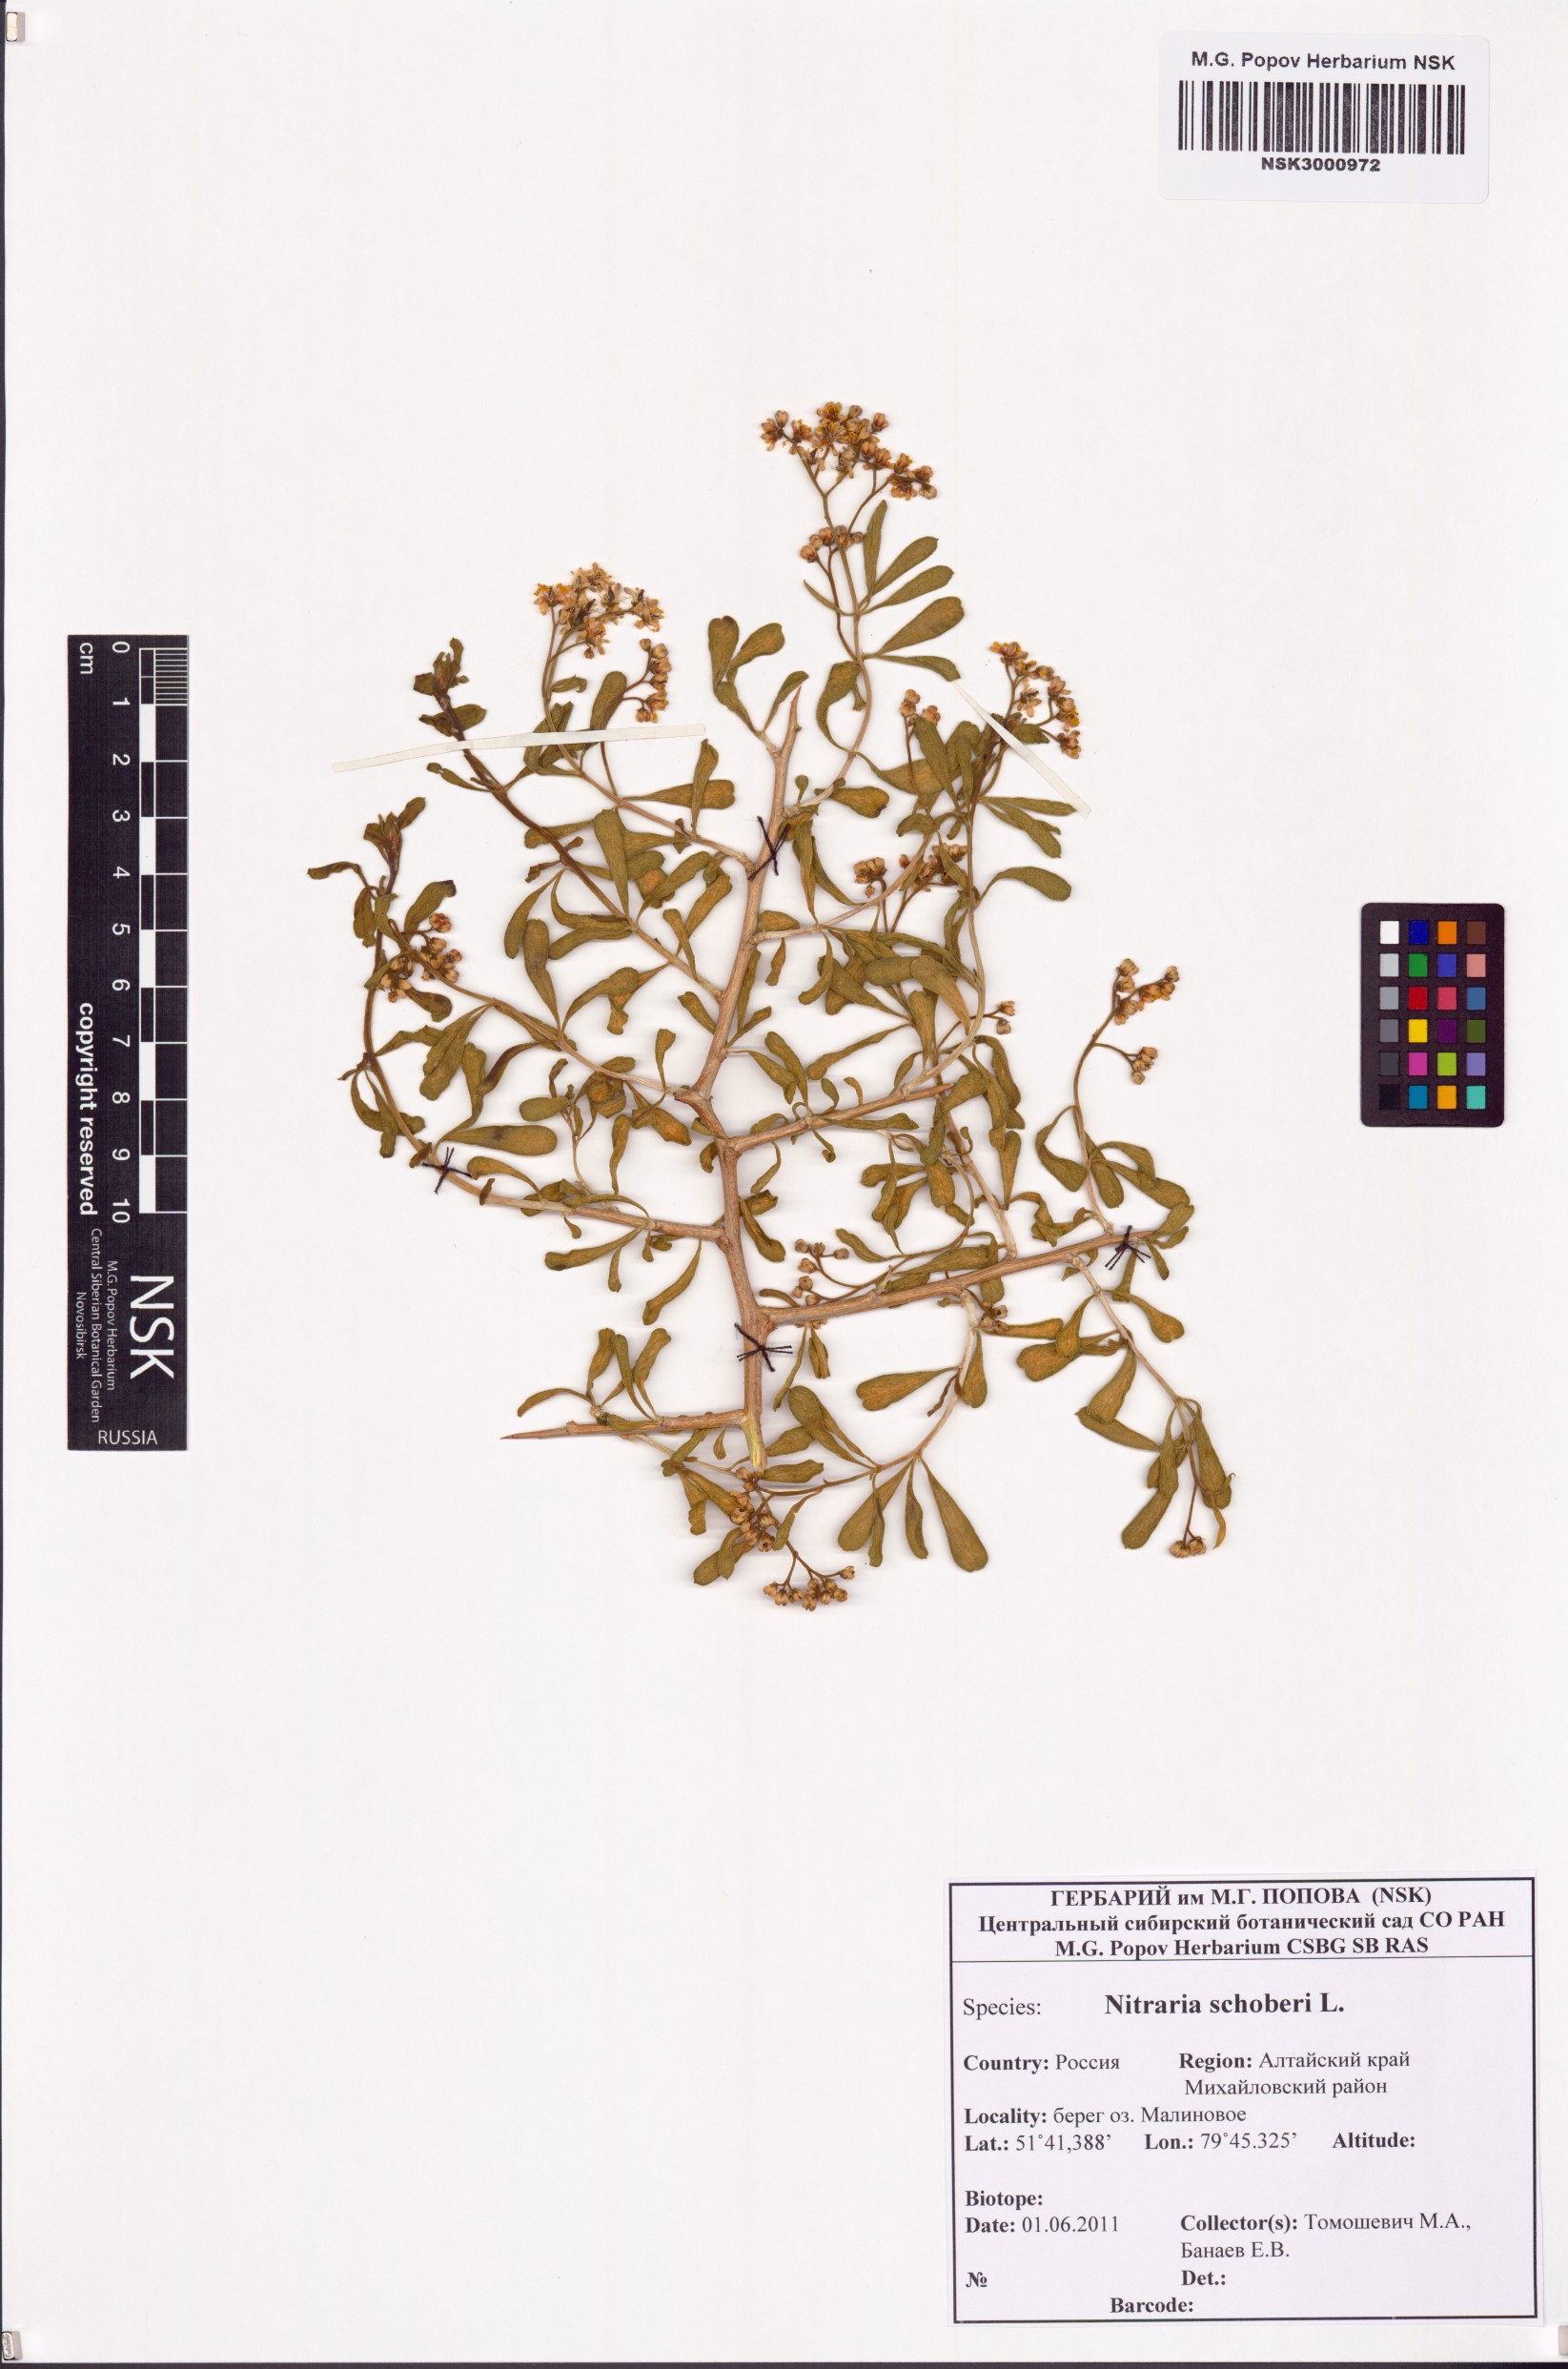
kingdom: Plantae
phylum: Tracheophyta
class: Magnoliopsida
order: Sapindales
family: Nitrariaceae
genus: Nitraria
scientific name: Nitraria schoberi
